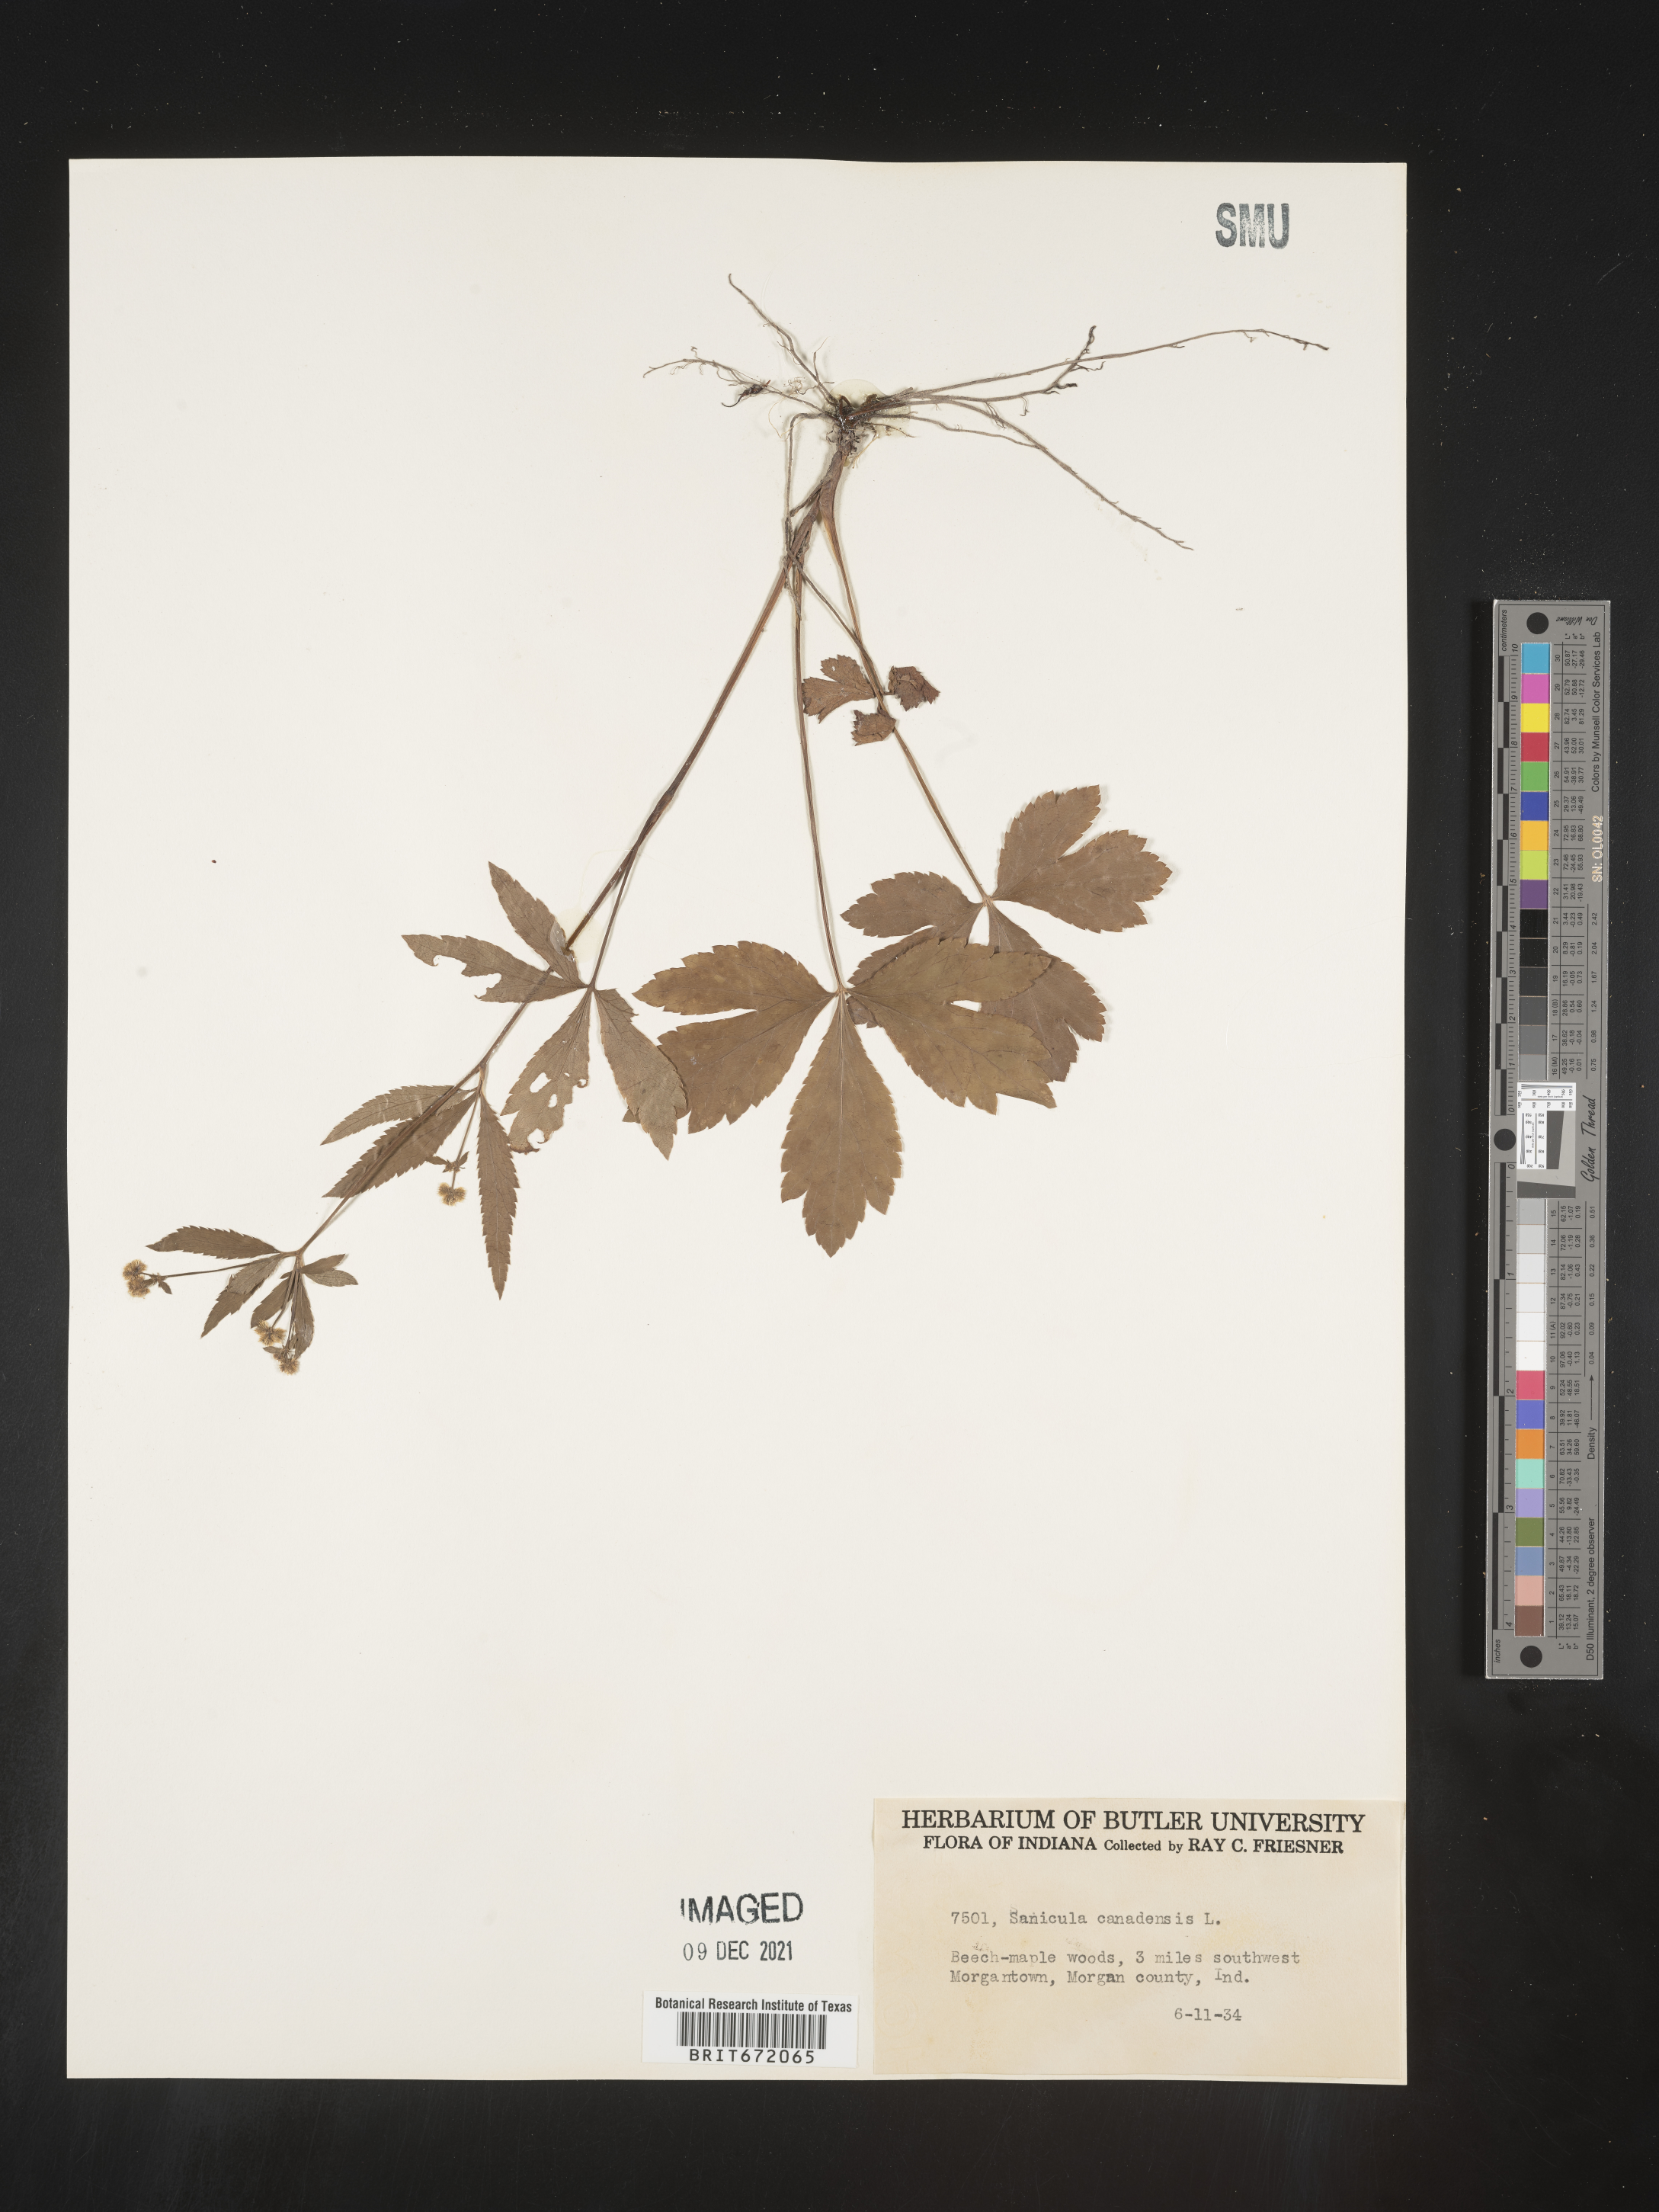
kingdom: Plantae
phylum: Tracheophyta
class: Magnoliopsida
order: Apiales
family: Apiaceae
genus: Sanicula
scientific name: Sanicula canadensis
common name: Canada sanicle
